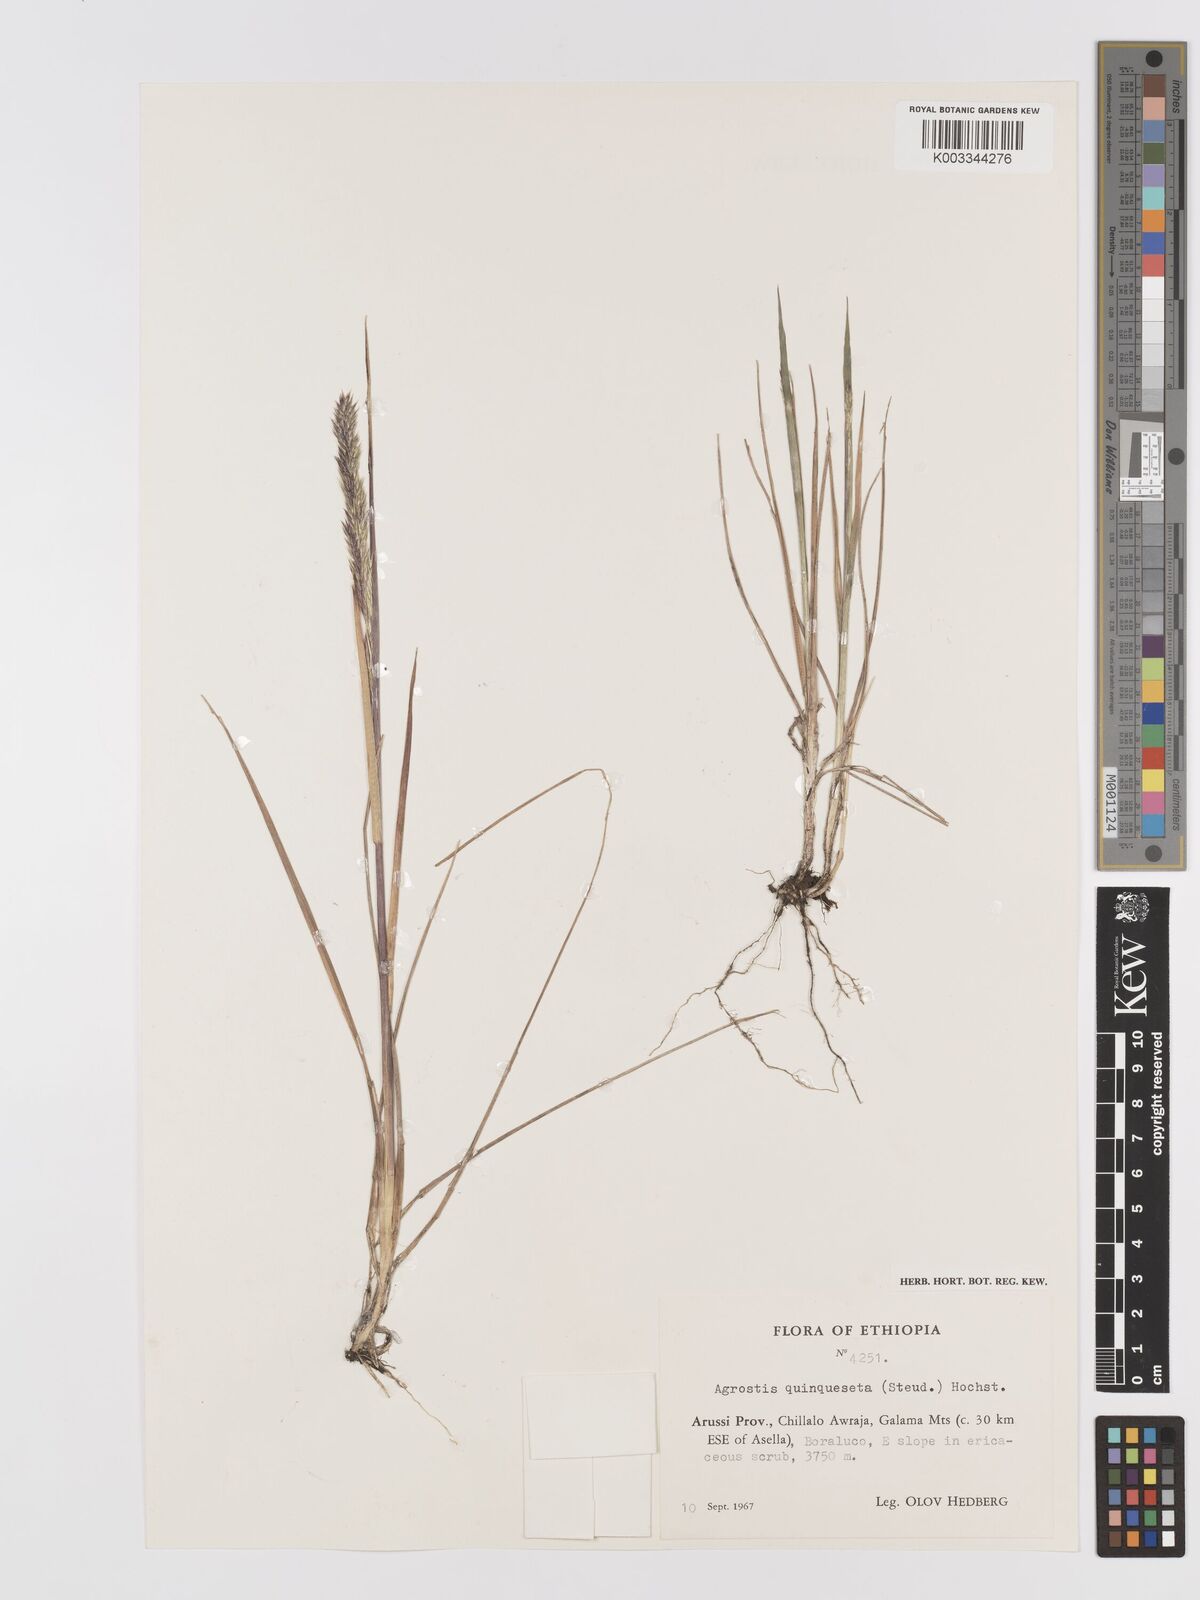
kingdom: Plantae
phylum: Tracheophyta
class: Liliopsida
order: Poales
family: Poaceae
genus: Agrostis
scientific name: Agrostis quinqueseta
